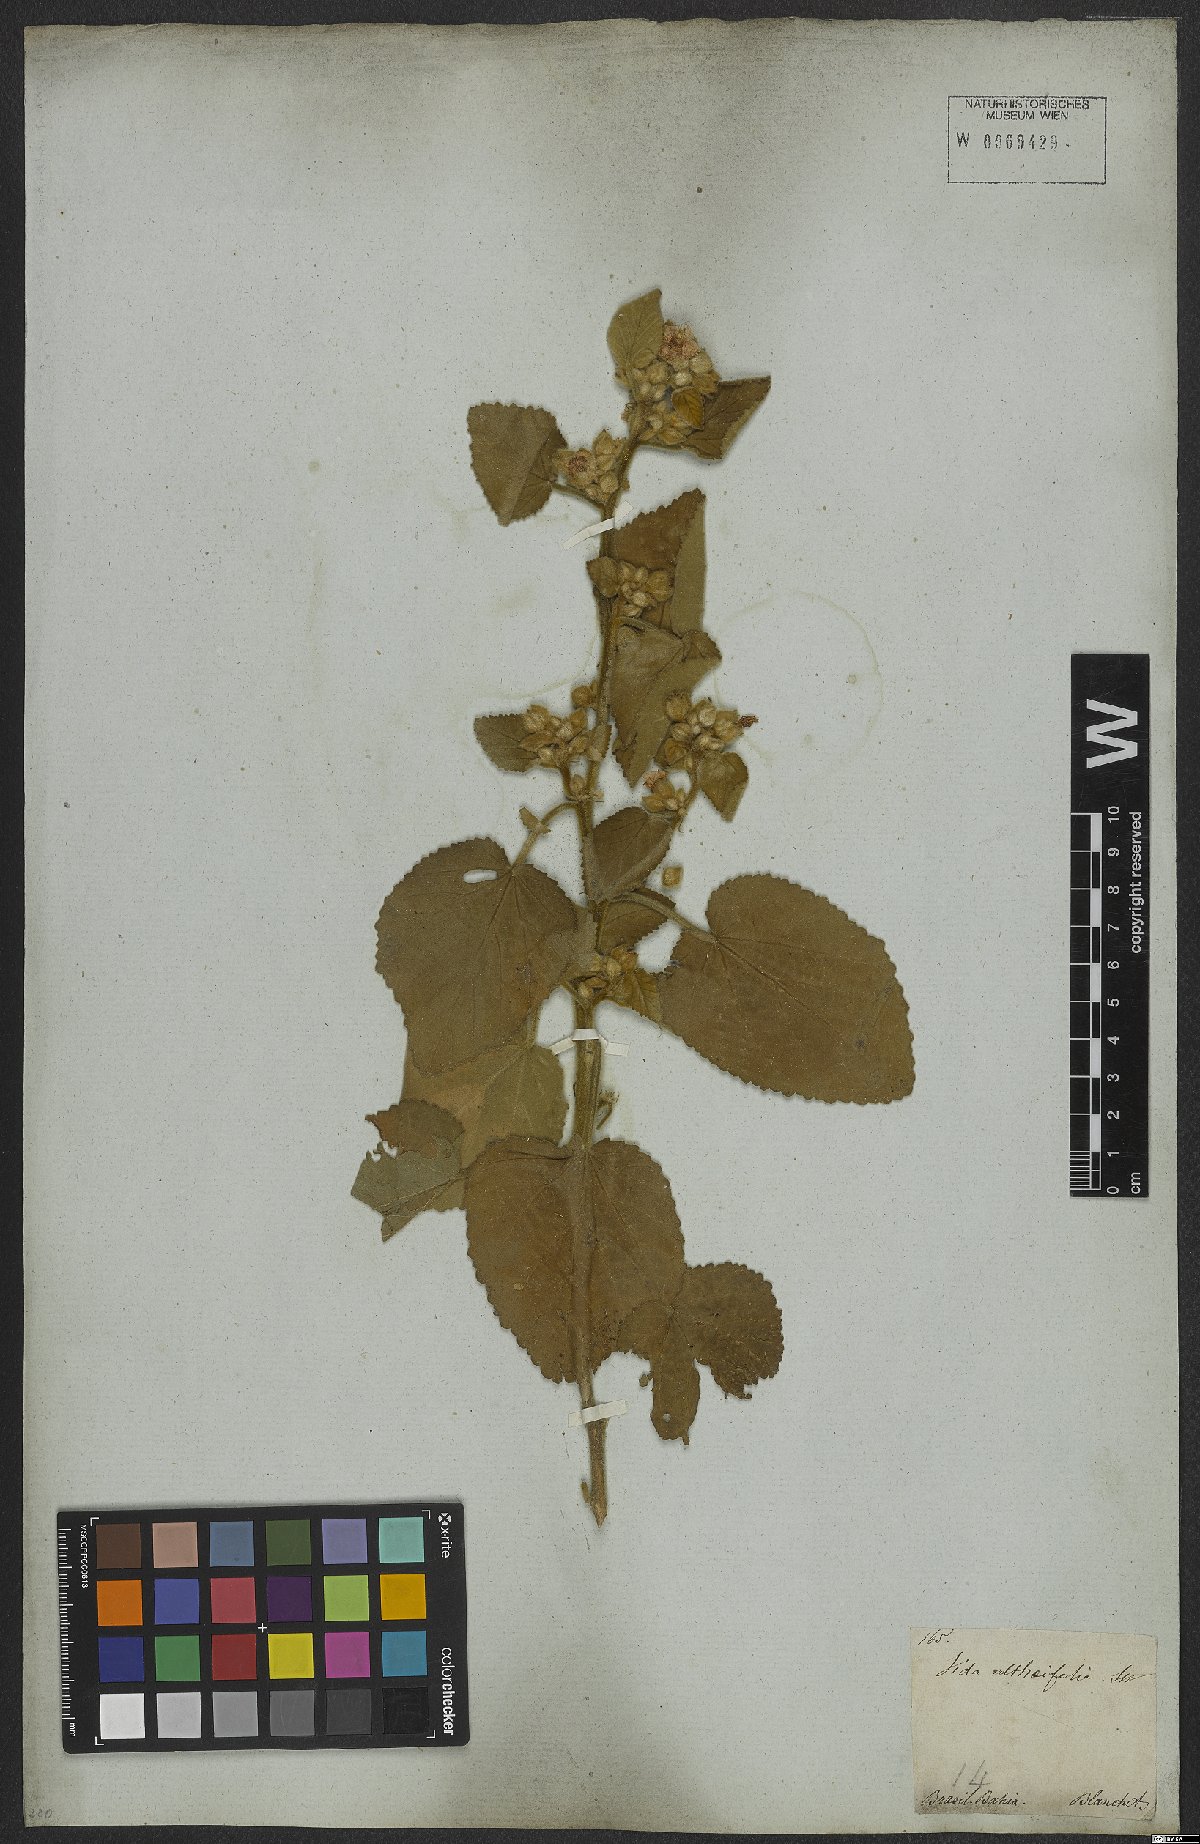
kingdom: Plantae
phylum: Tracheophyta
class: Magnoliopsida
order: Malvales
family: Malvaceae
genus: Sida
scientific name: Sida cordifolia
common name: Ilima
